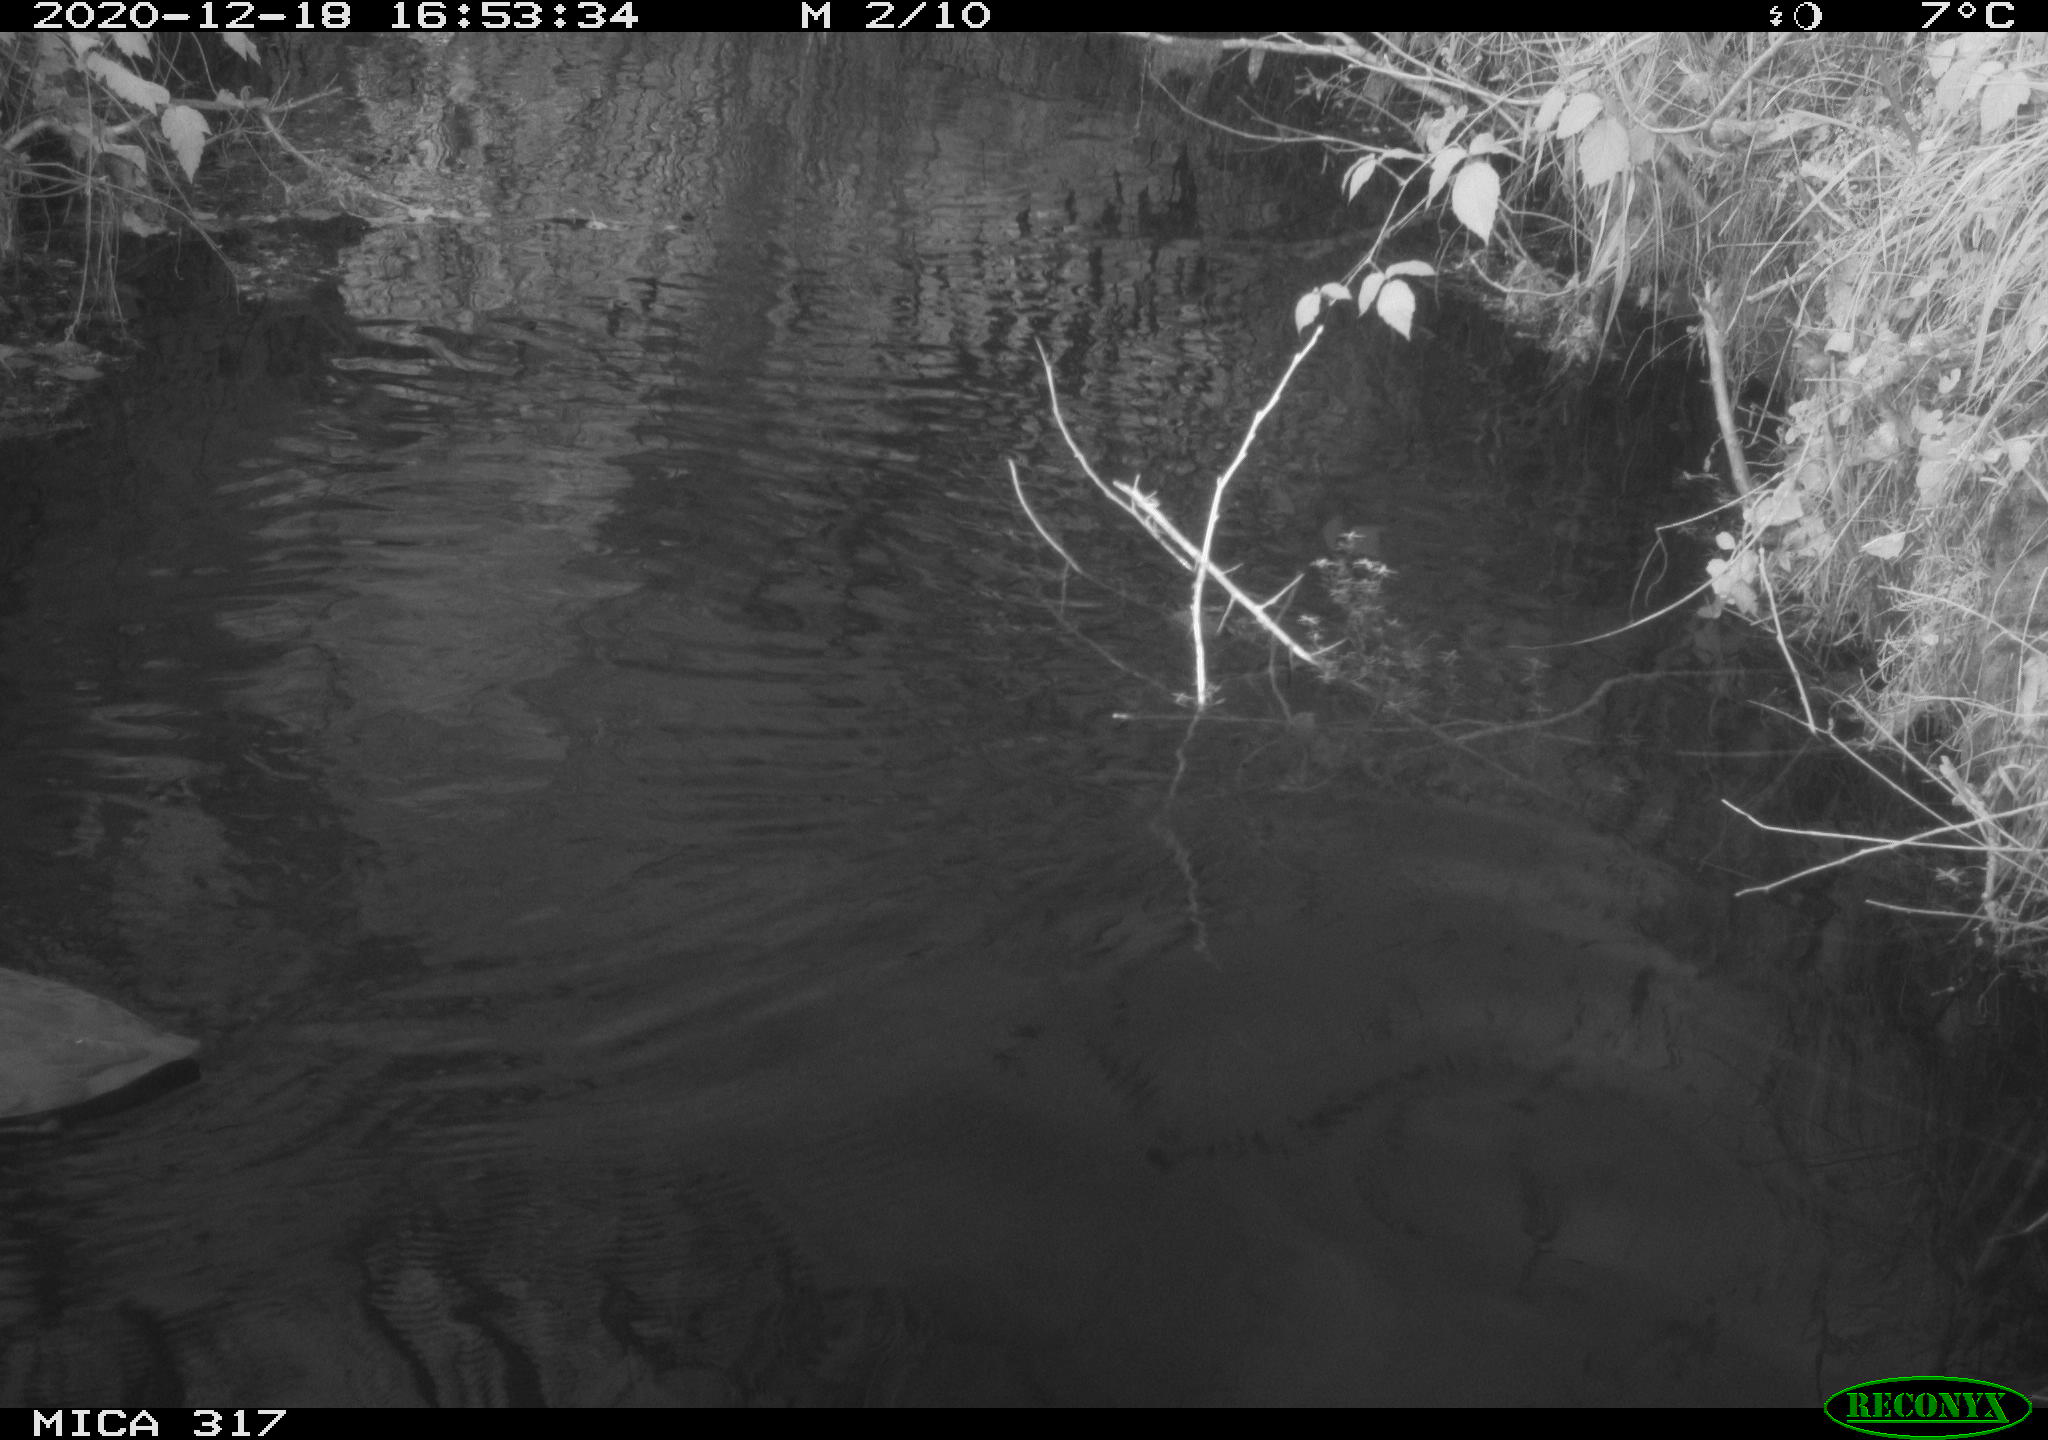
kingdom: Animalia
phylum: Chordata
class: Aves
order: Anseriformes
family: Anatidae
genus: Anas
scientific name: Anas platyrhynchos
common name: Mallard
